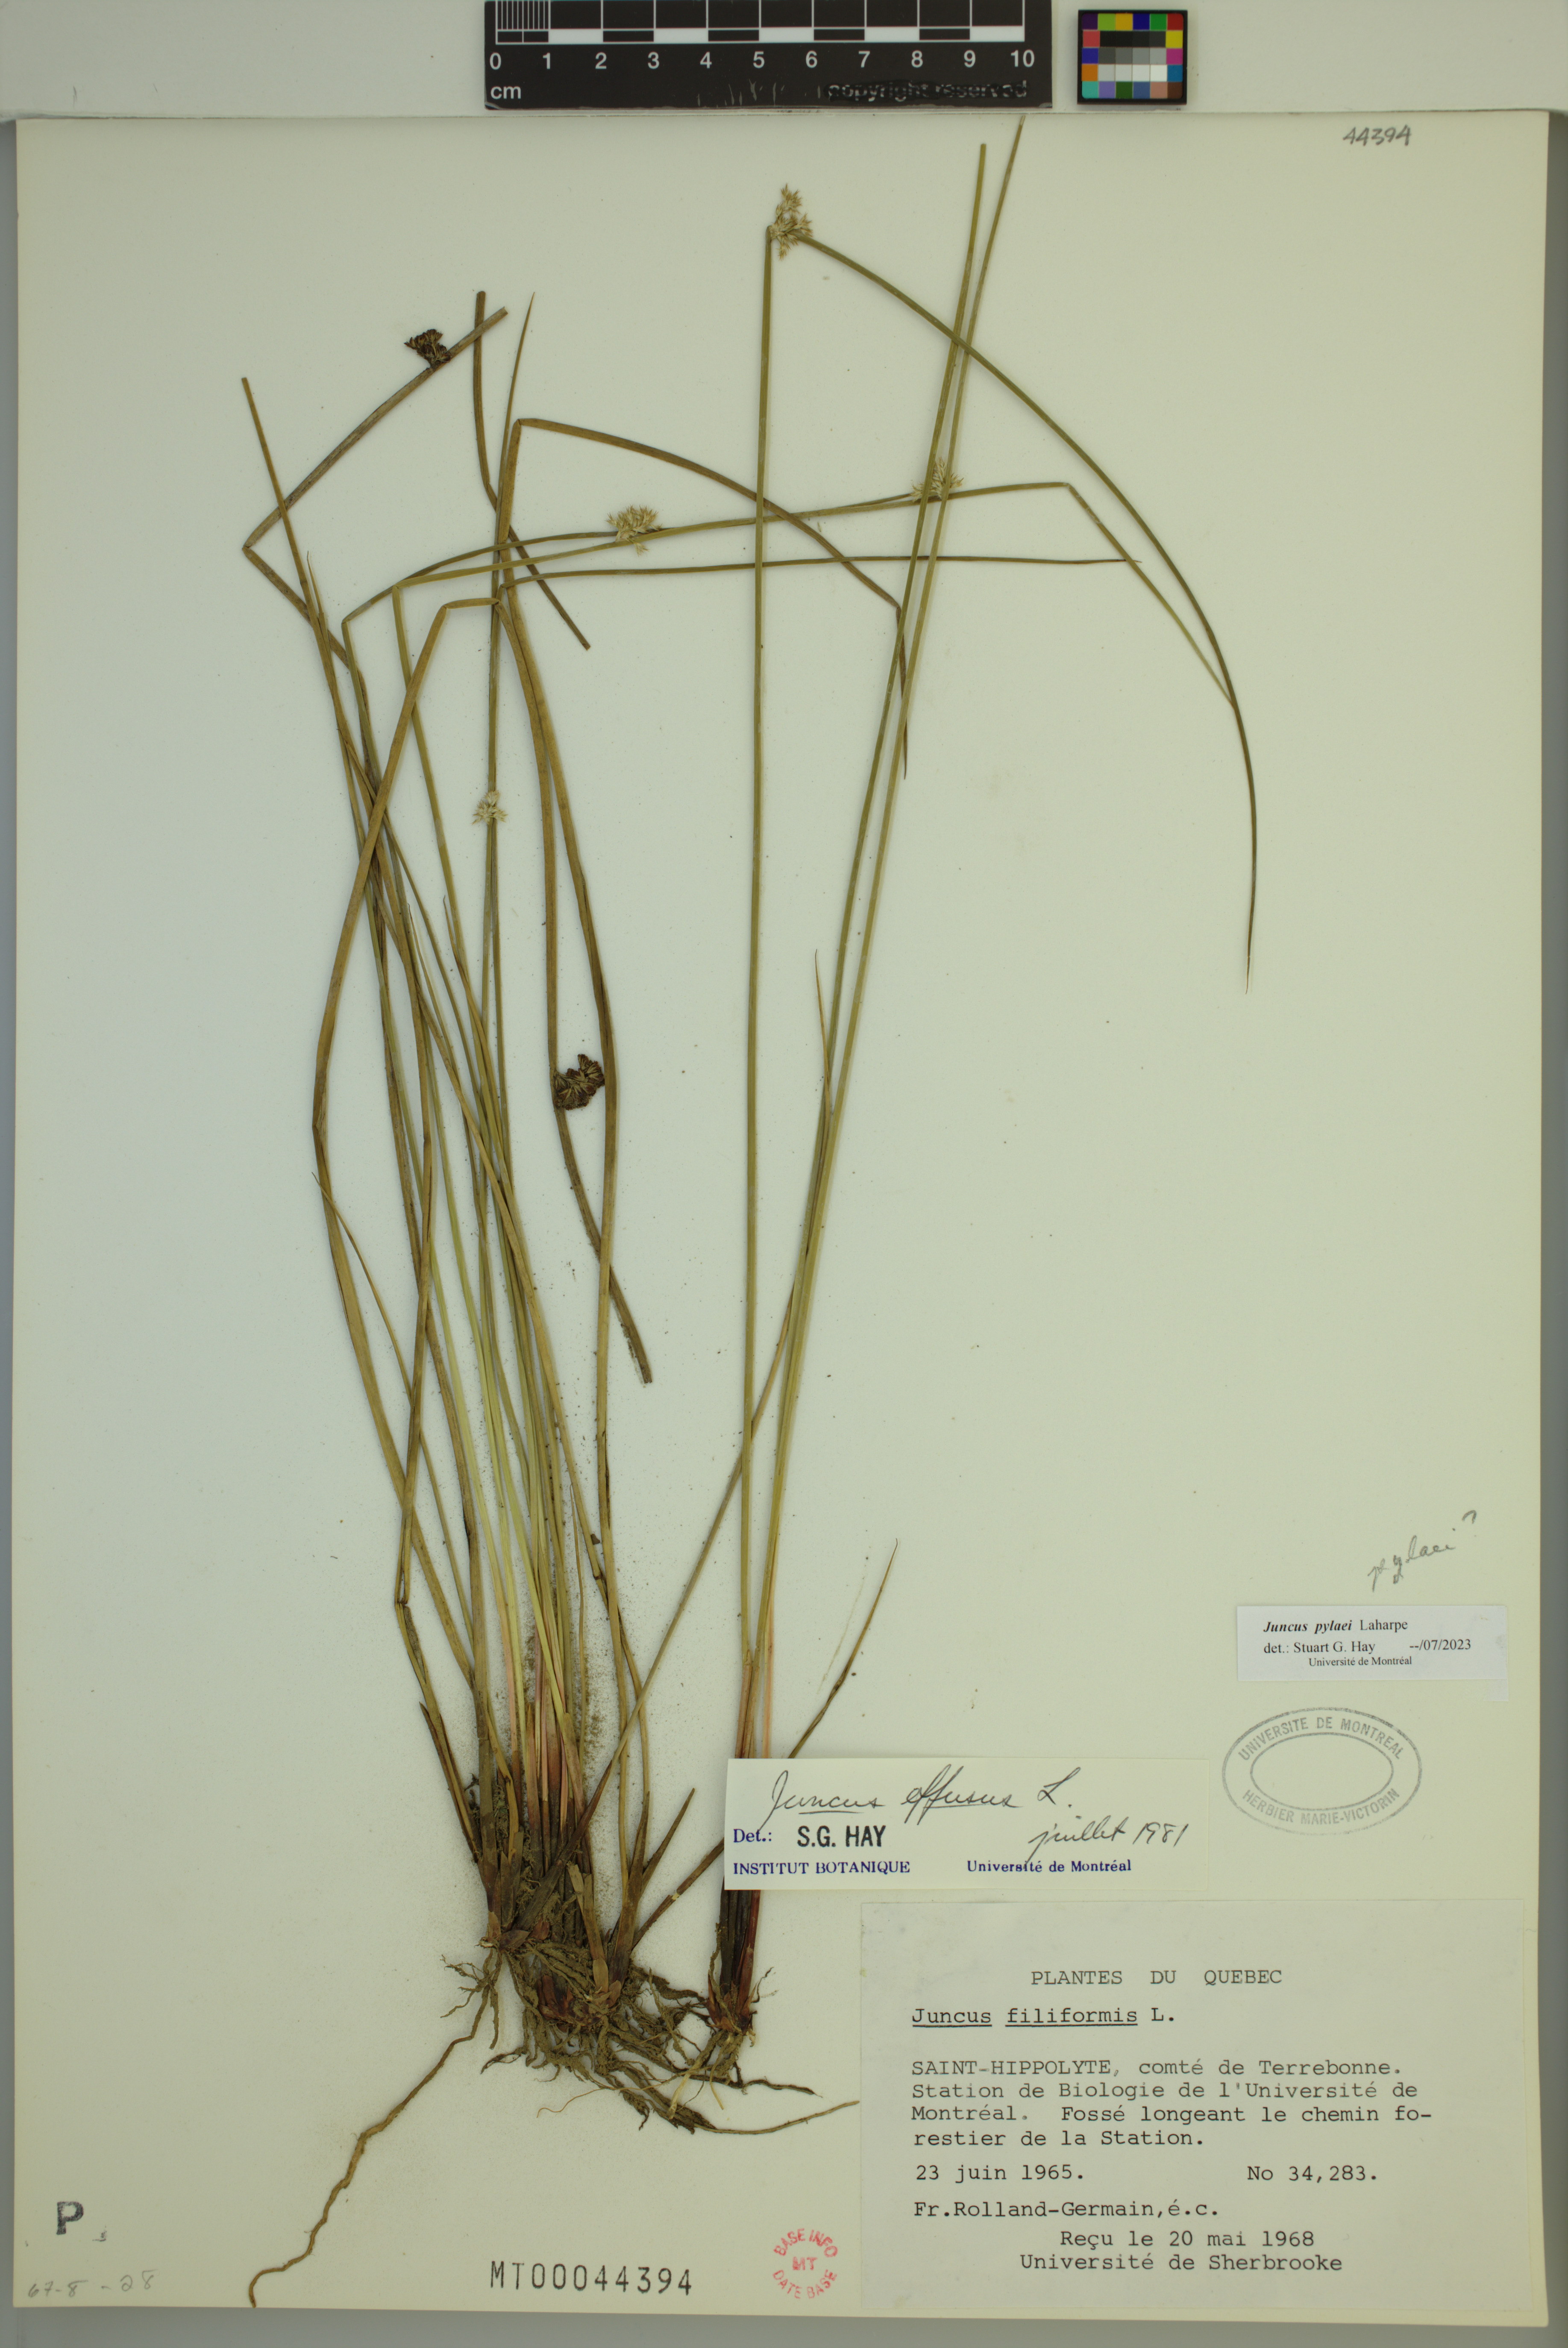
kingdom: Plantae
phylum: Tracheophyta
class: Liliopsida
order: Poales
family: Juncaceae
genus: Juncus
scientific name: Juncus effusus
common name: Soft rush
